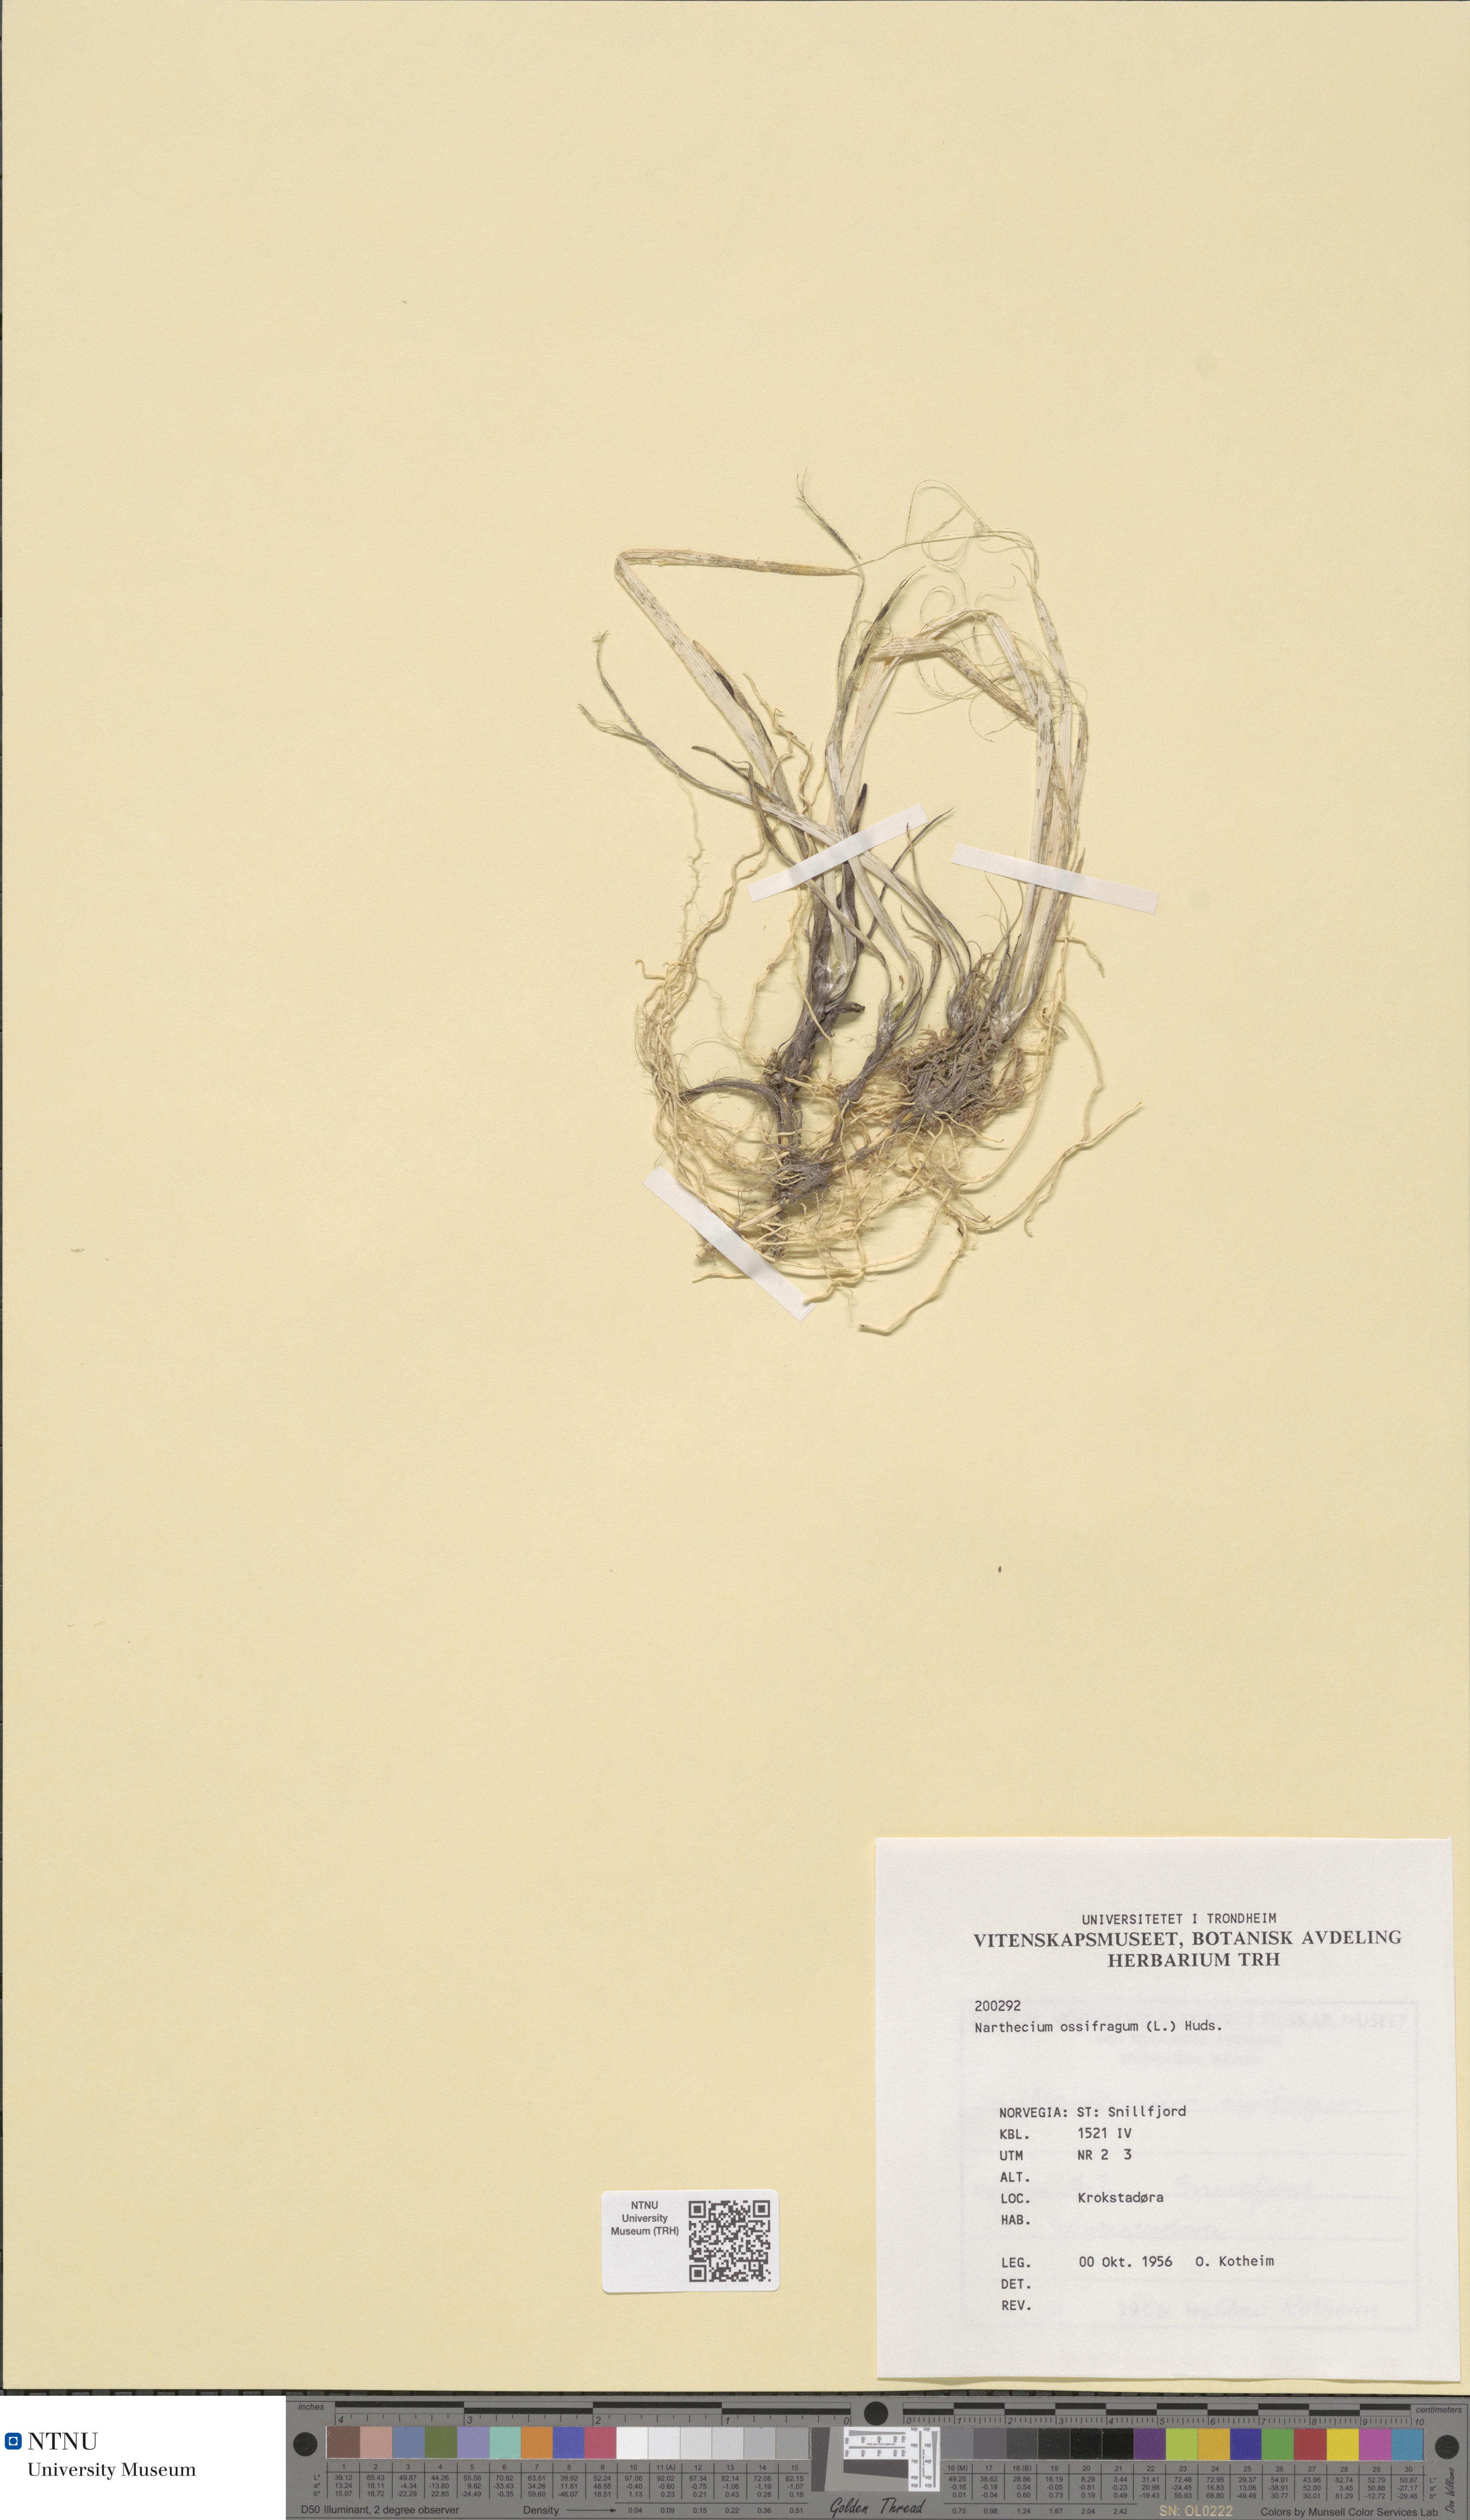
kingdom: Plantae
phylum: Tracheophyta
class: Liliopsida
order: Dioscoreales
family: Nartheciaceae
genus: Narthecium
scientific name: Narthecium ossifragum
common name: Bog asphodel
